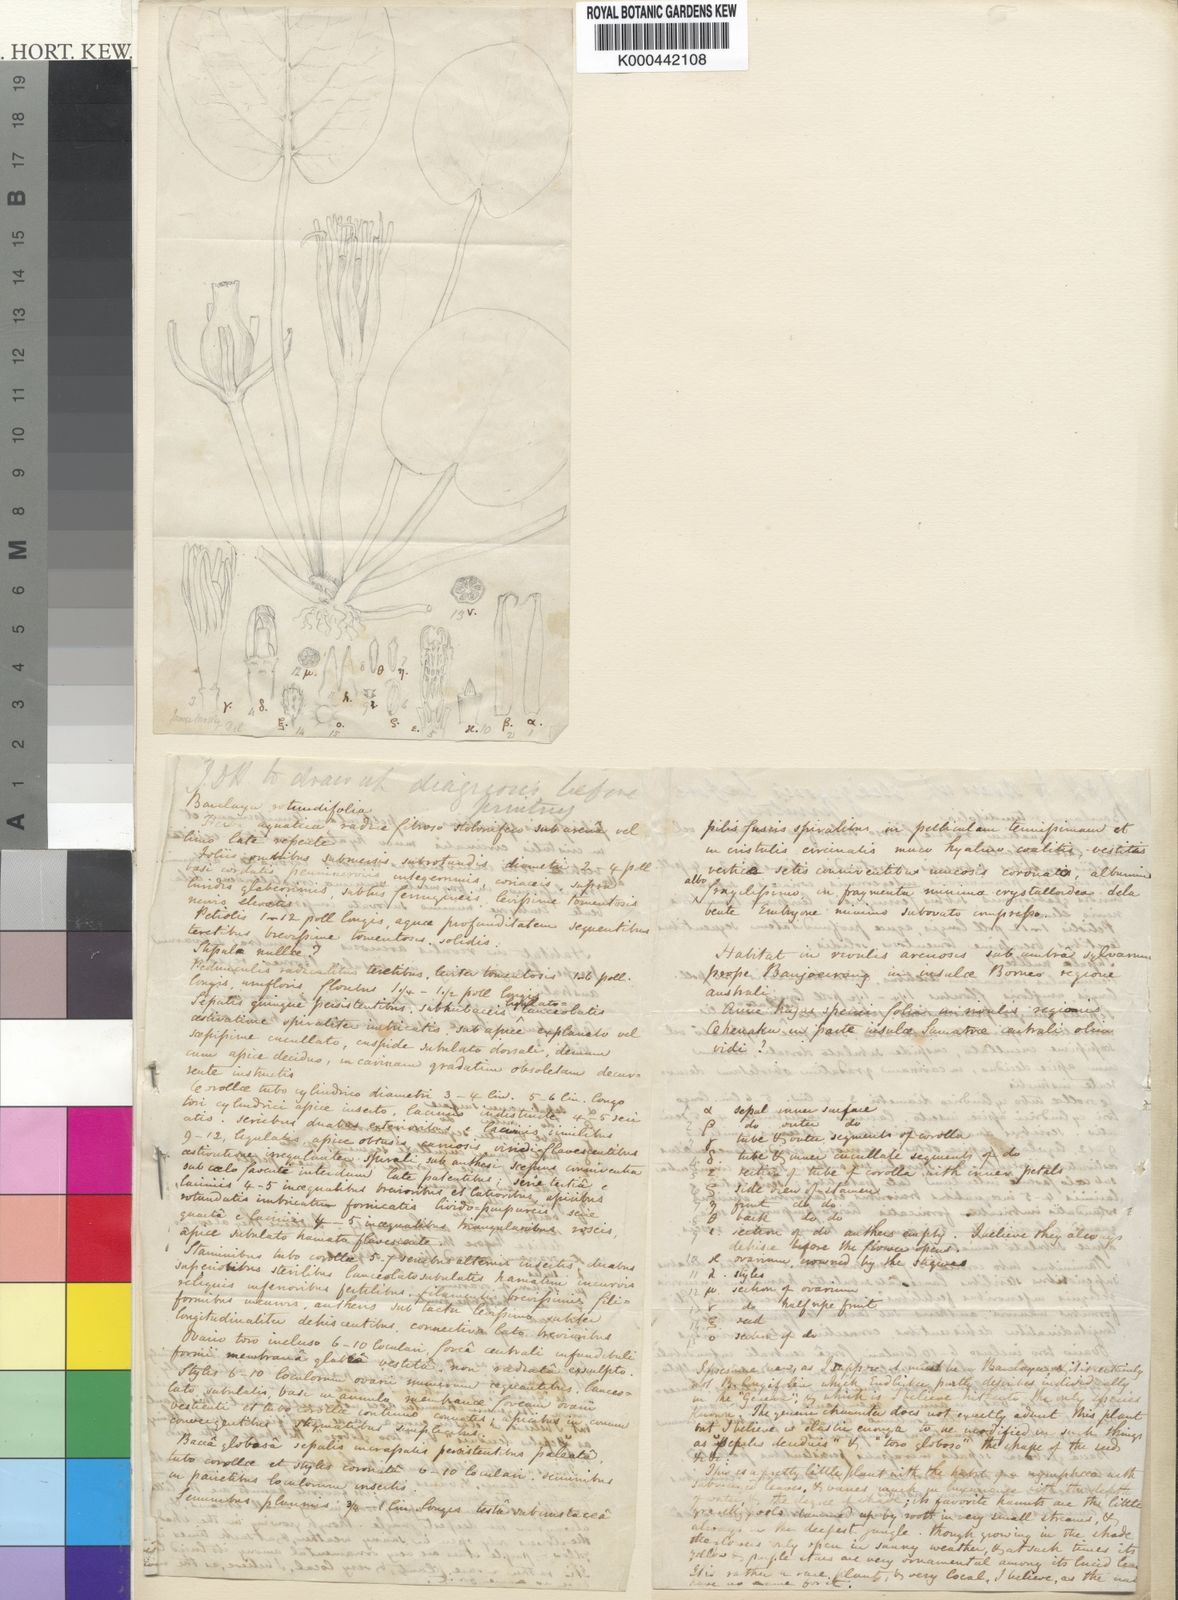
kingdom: Plantae
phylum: Tracheophyta
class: Magnoliopsida
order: Nymphaeales
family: Nymphaeaceae
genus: Barclaya
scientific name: Barclaya motleyi
